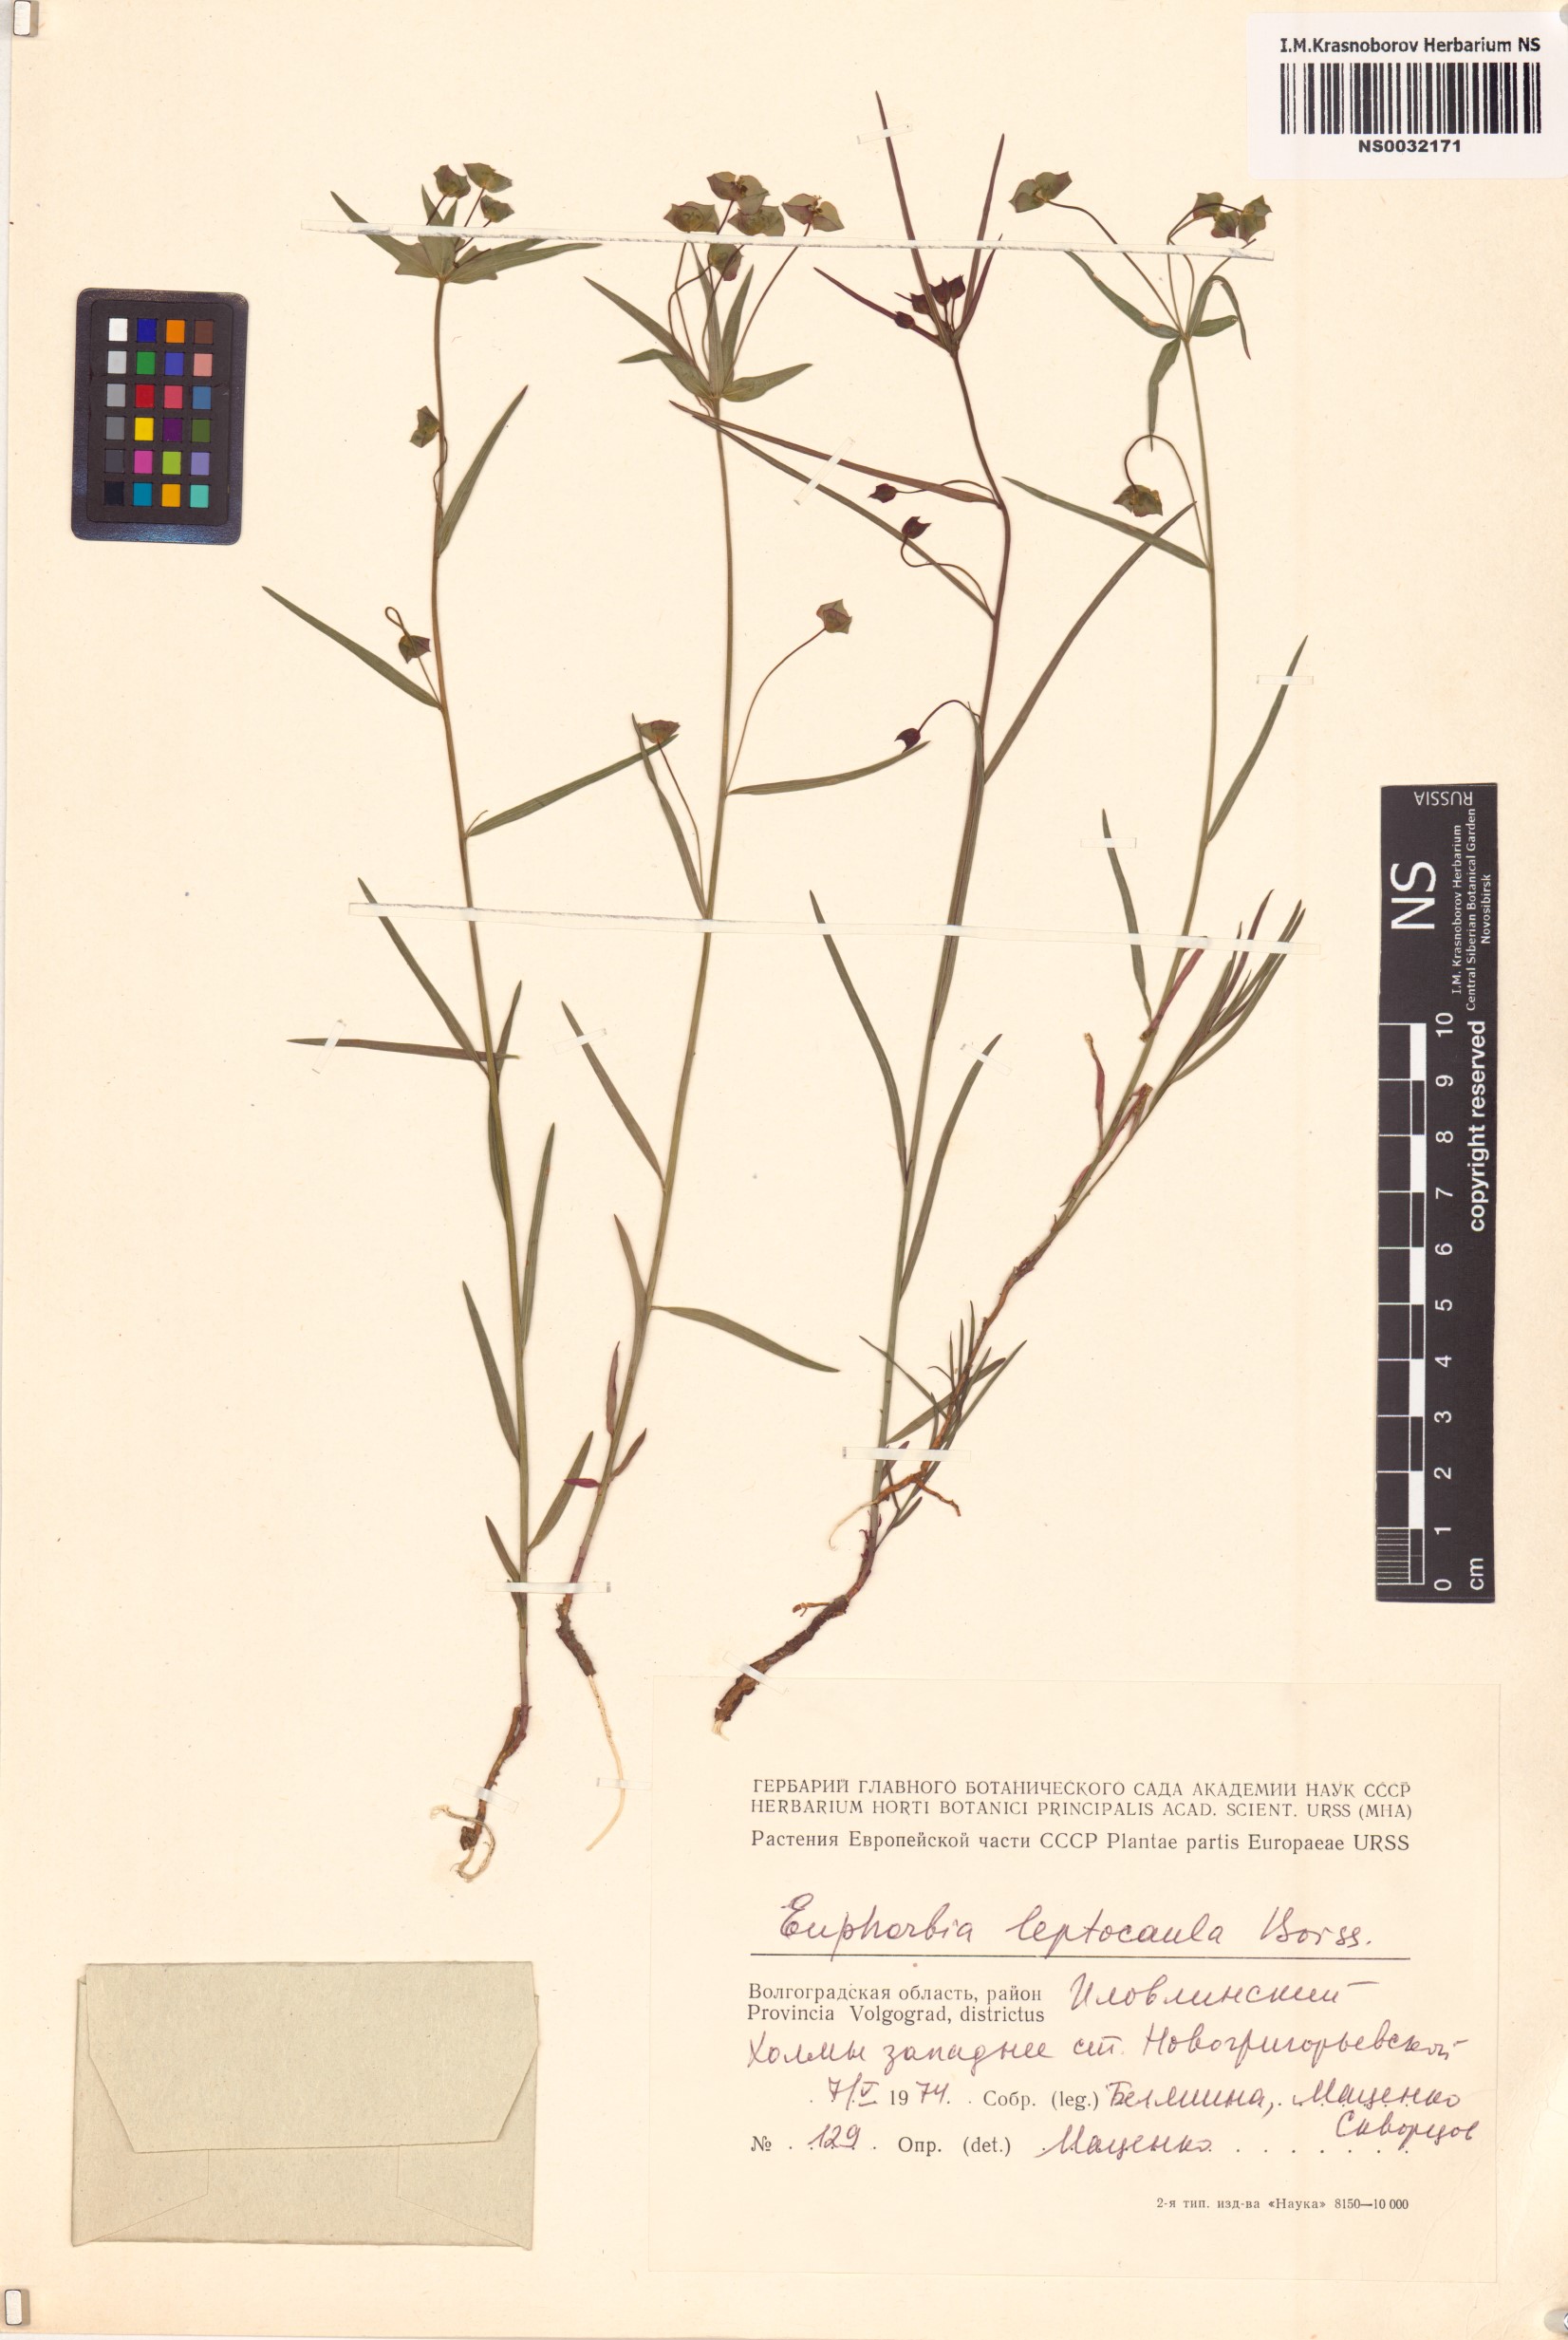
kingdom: Plantae
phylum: Tracheophyta
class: Magnoliopsida
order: Malpighiales
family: Euphorbiaceae
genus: Euphorbia
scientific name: Euphorbia leptocaula
